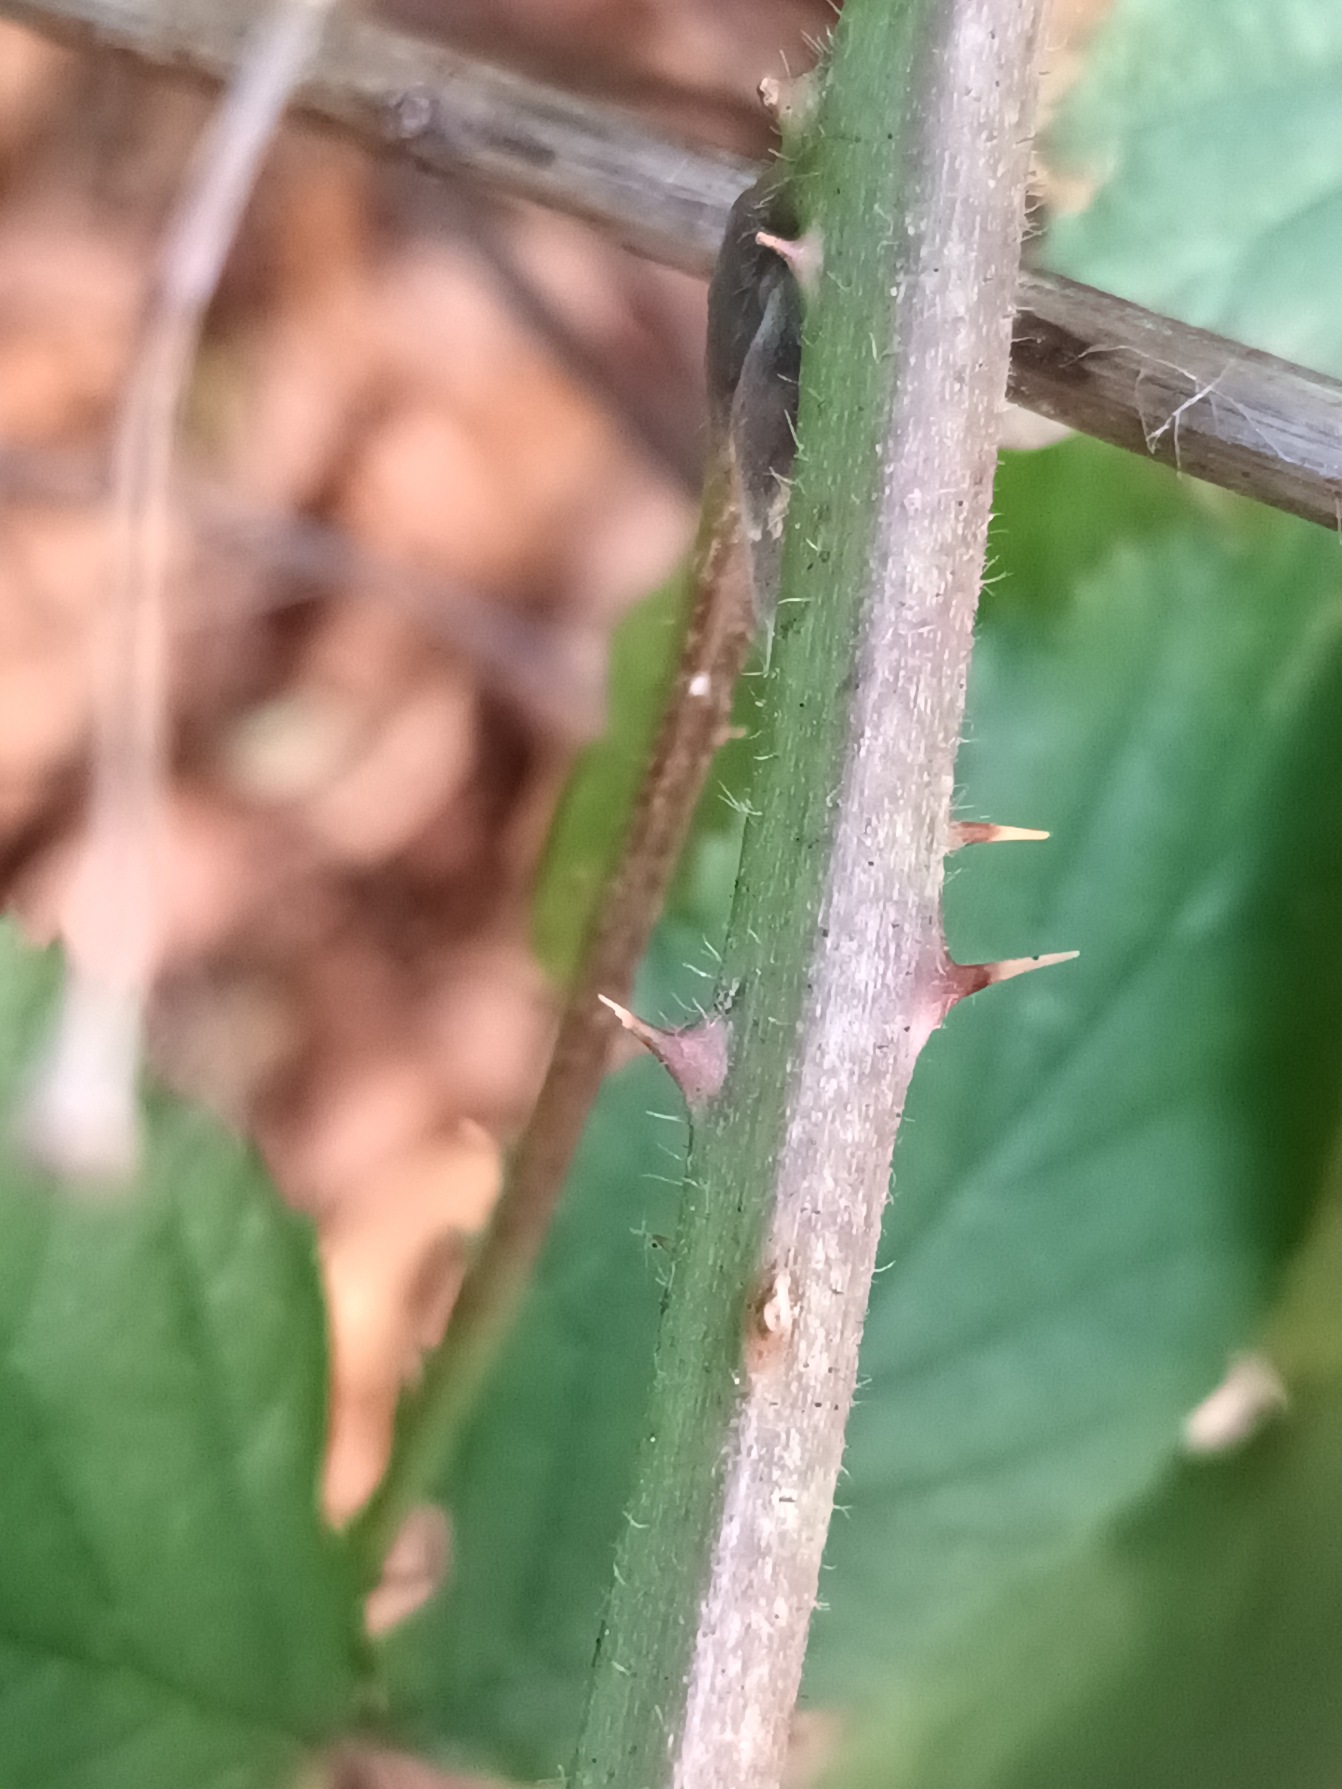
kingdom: Plantae
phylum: Tracheophyta
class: Magnoliopsida
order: Rosales
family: Rosaceae
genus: Rubus
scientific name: Rubus radula
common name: Rasperu brombær
